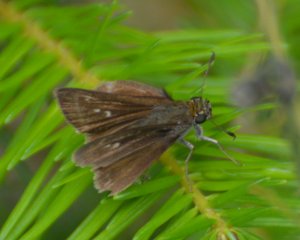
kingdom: Animalia
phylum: Arthropoda
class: Insecta
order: Lepidoptera
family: Hesperiidae
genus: Euphyes
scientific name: Euphyes vestris
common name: Dun Skipper
